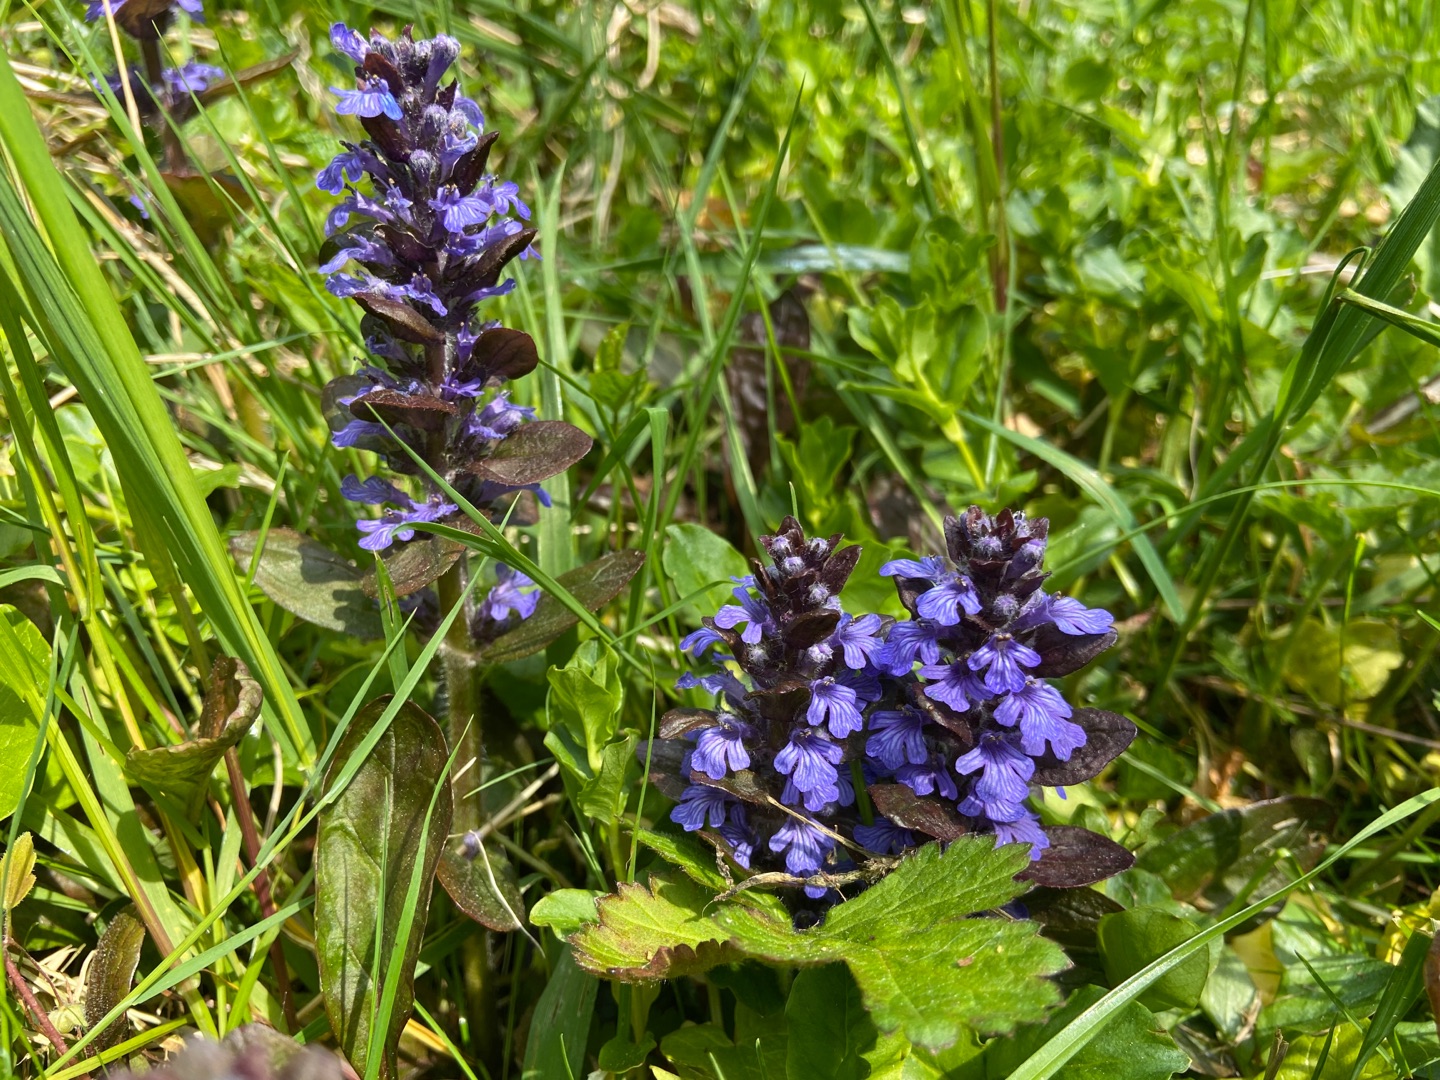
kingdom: Plantae
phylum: Tracheophyta
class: Magnoliopsida
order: Lamiales
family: Lamiaceae
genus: Ajuga
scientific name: Ajuga reptans
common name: Krybende læbeløs
